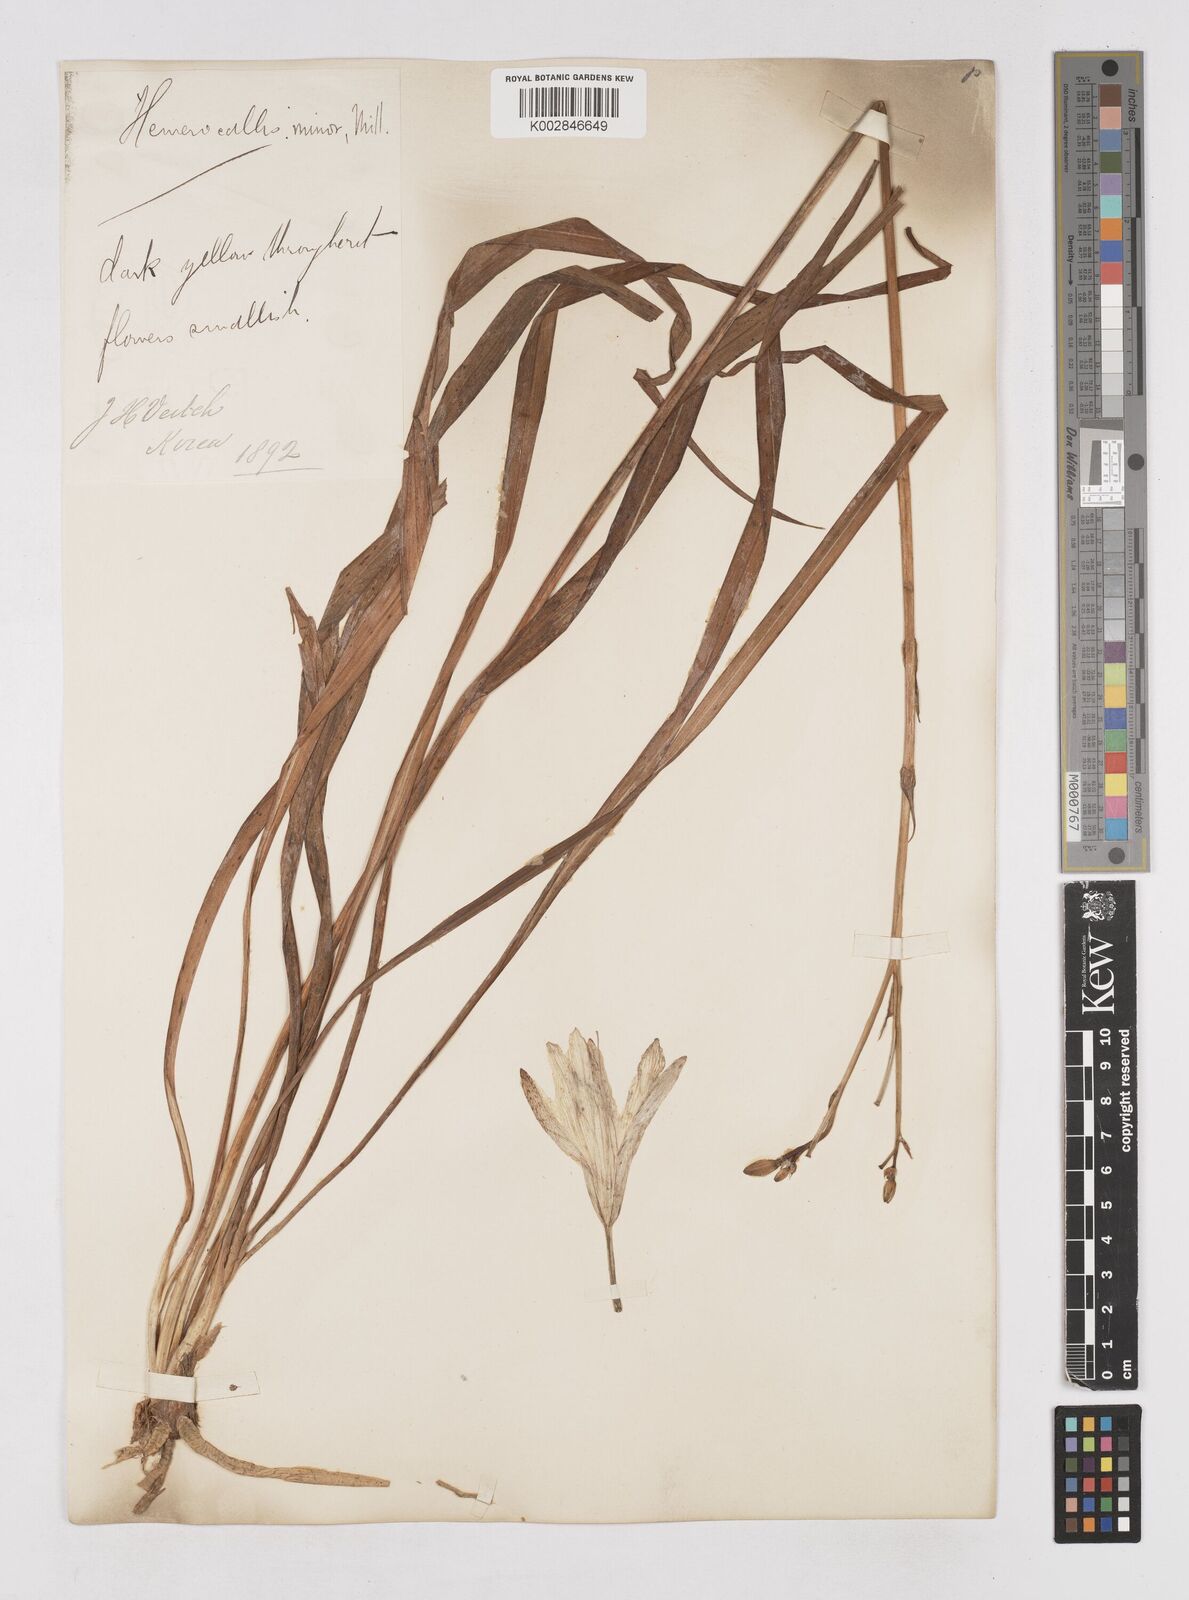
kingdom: Plantae
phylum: Tracheophyta
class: Liliopsida
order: Asparagales
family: Asphodelaceae
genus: Hemerocallis
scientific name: Hemerocallis minor
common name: Small daylily
